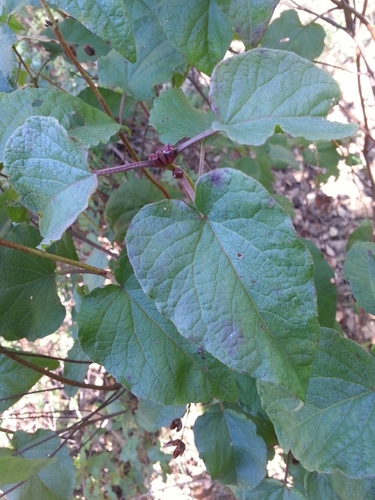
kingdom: Plantae
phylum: Tracheophyta
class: Magnoliopsida
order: Malvales
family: Cistaceae
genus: Cistus
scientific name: Cistus populifolius
